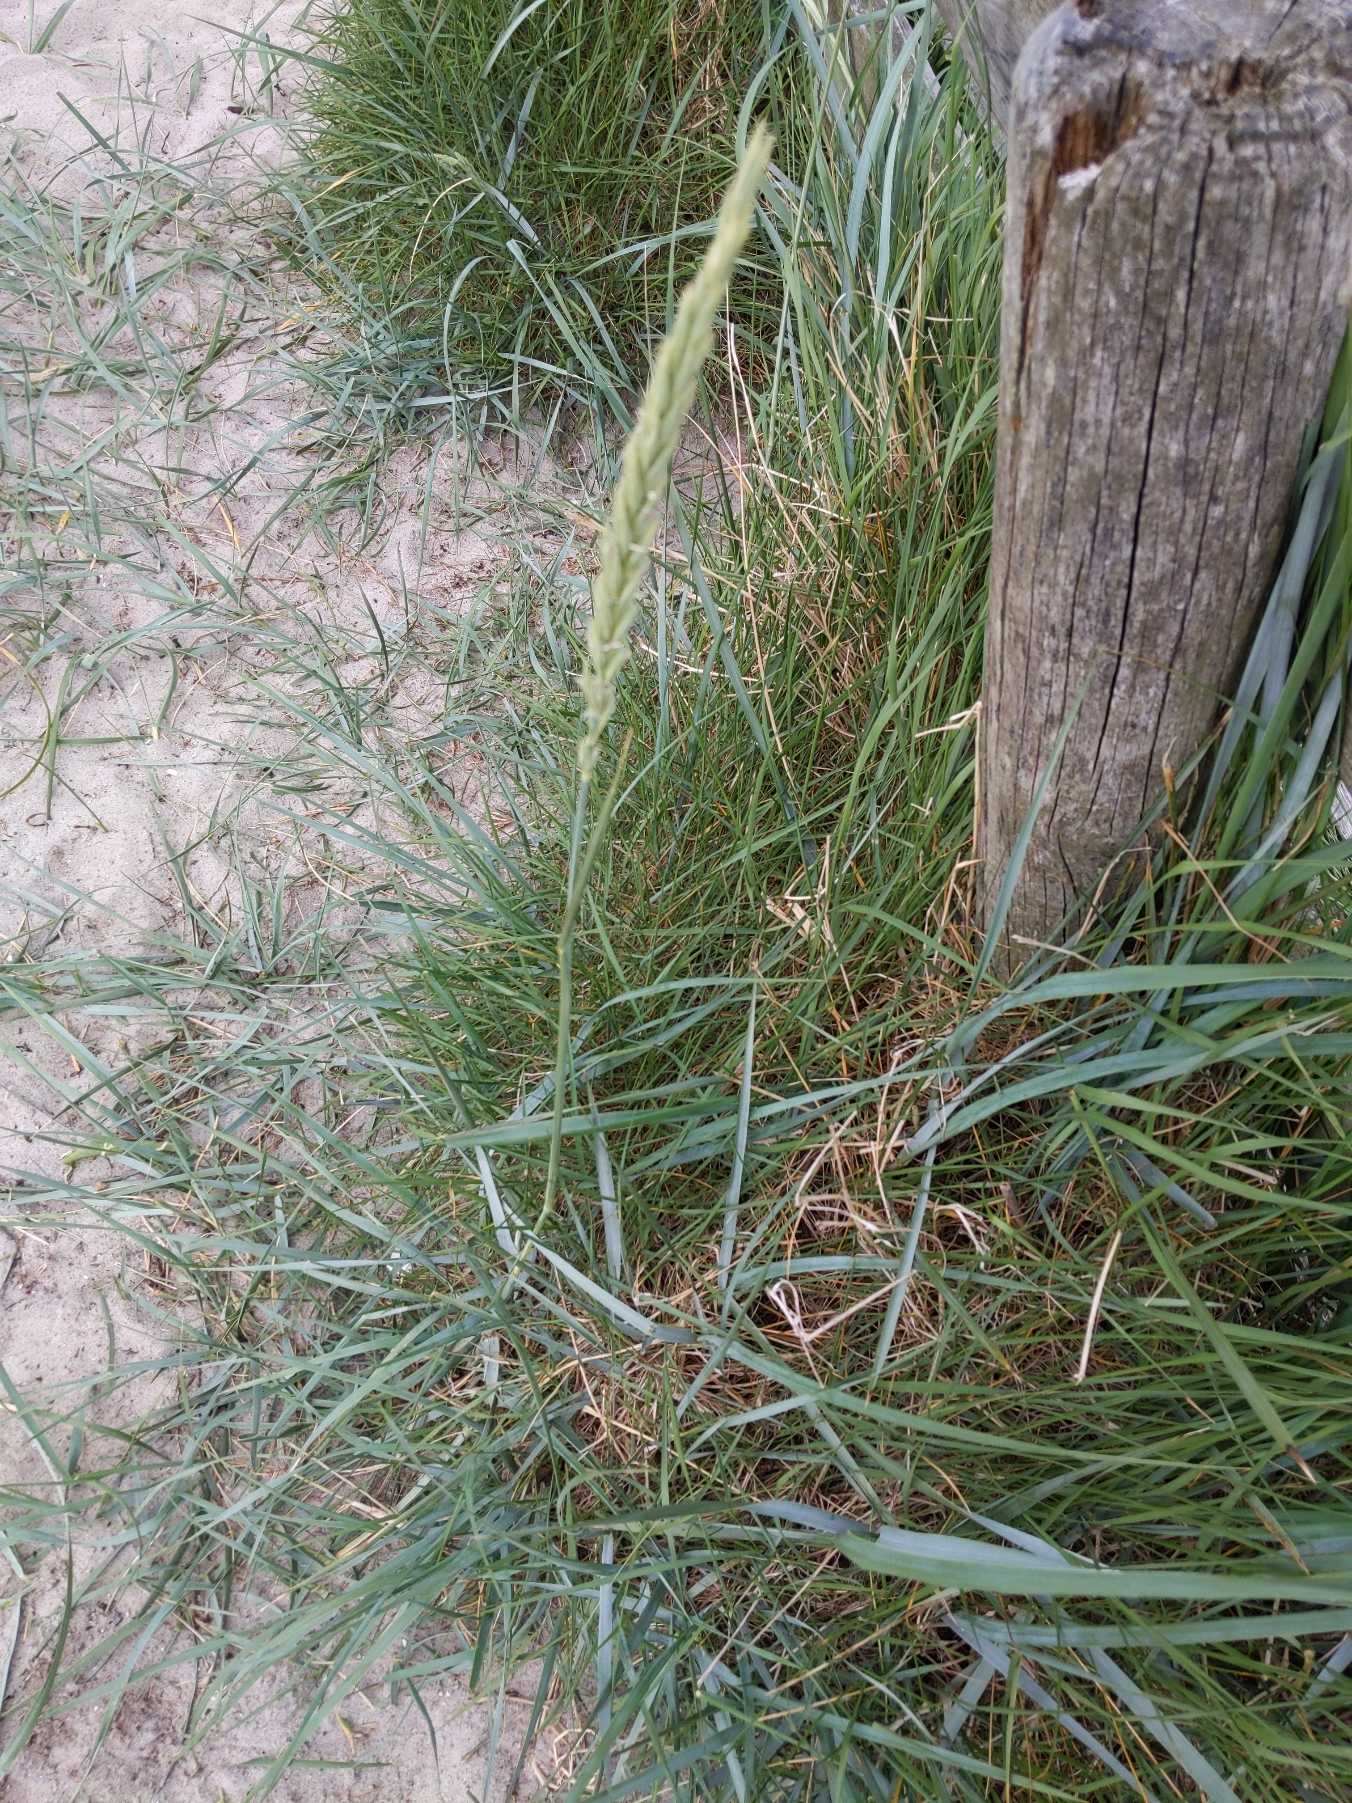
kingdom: Plantae
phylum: Tracheophyta
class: Liliopsida
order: Poales
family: Poaceae
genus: Leymus
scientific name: Leymus arenarius
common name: Marehalm
